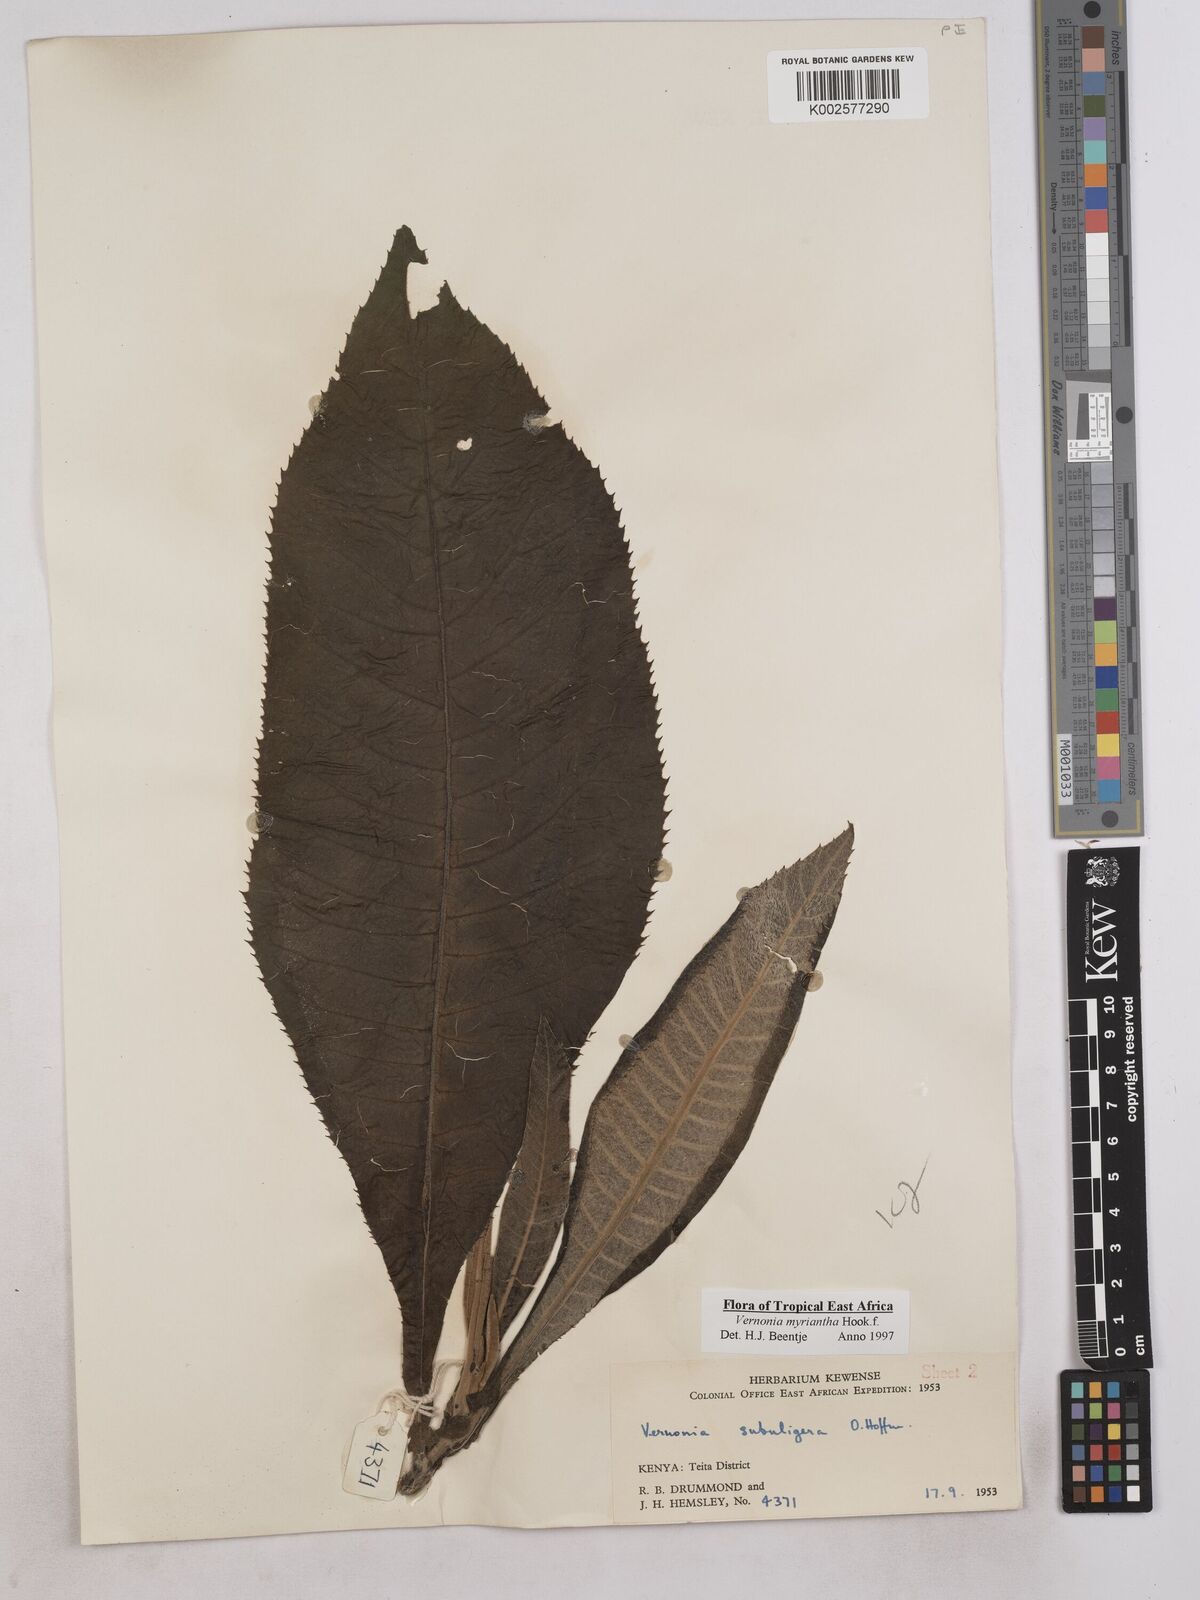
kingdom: Plantae
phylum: Tracheophyta
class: Magnoliopsida
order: Asterales
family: Asteraceae
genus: Gymnanthemum
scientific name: Gymnanthemum myrianthum
